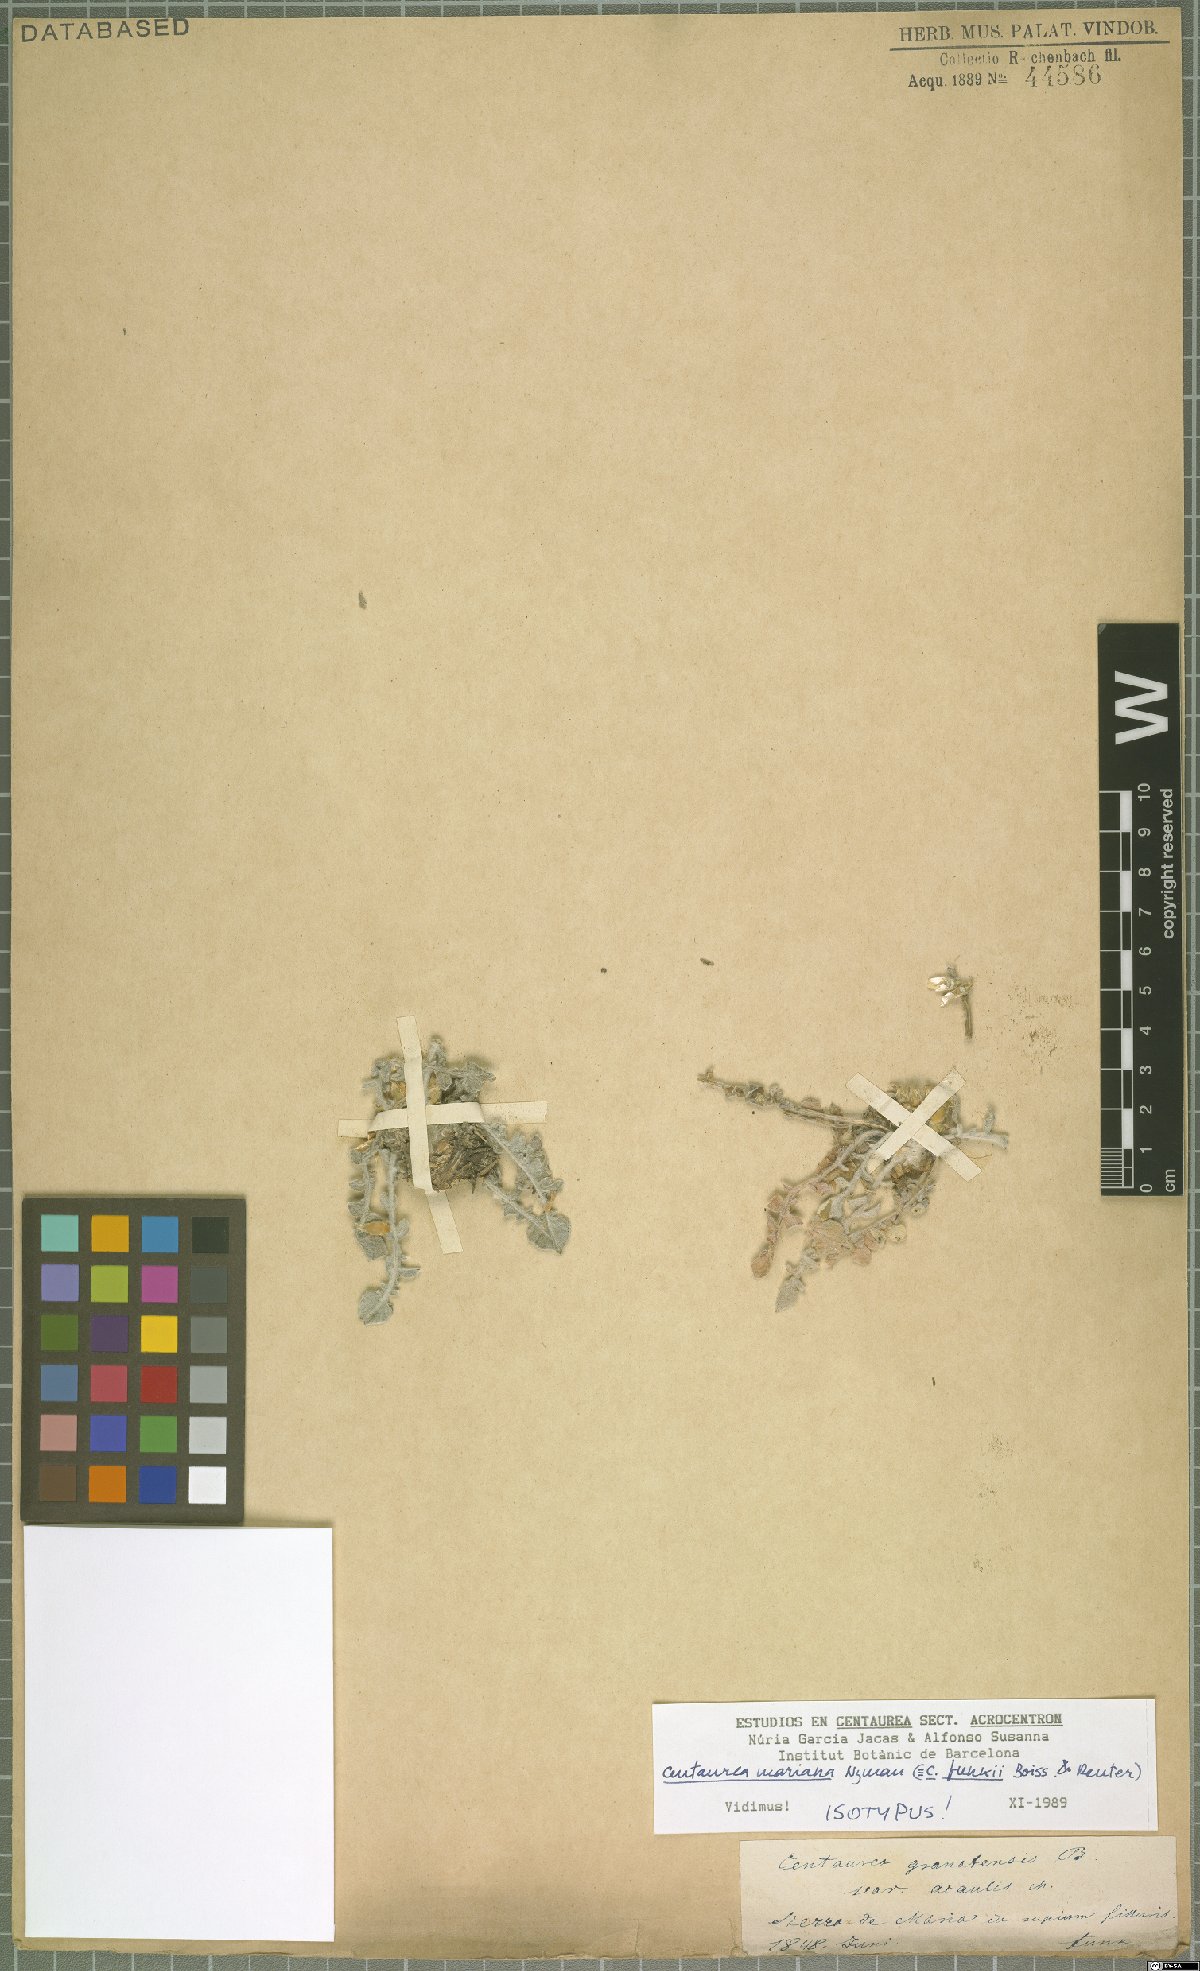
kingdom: Plantae
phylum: Tracheophyta
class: Magnoliopsida
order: Asterales
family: Asteraceae
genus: Centaurea
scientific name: Centaurea mariana
